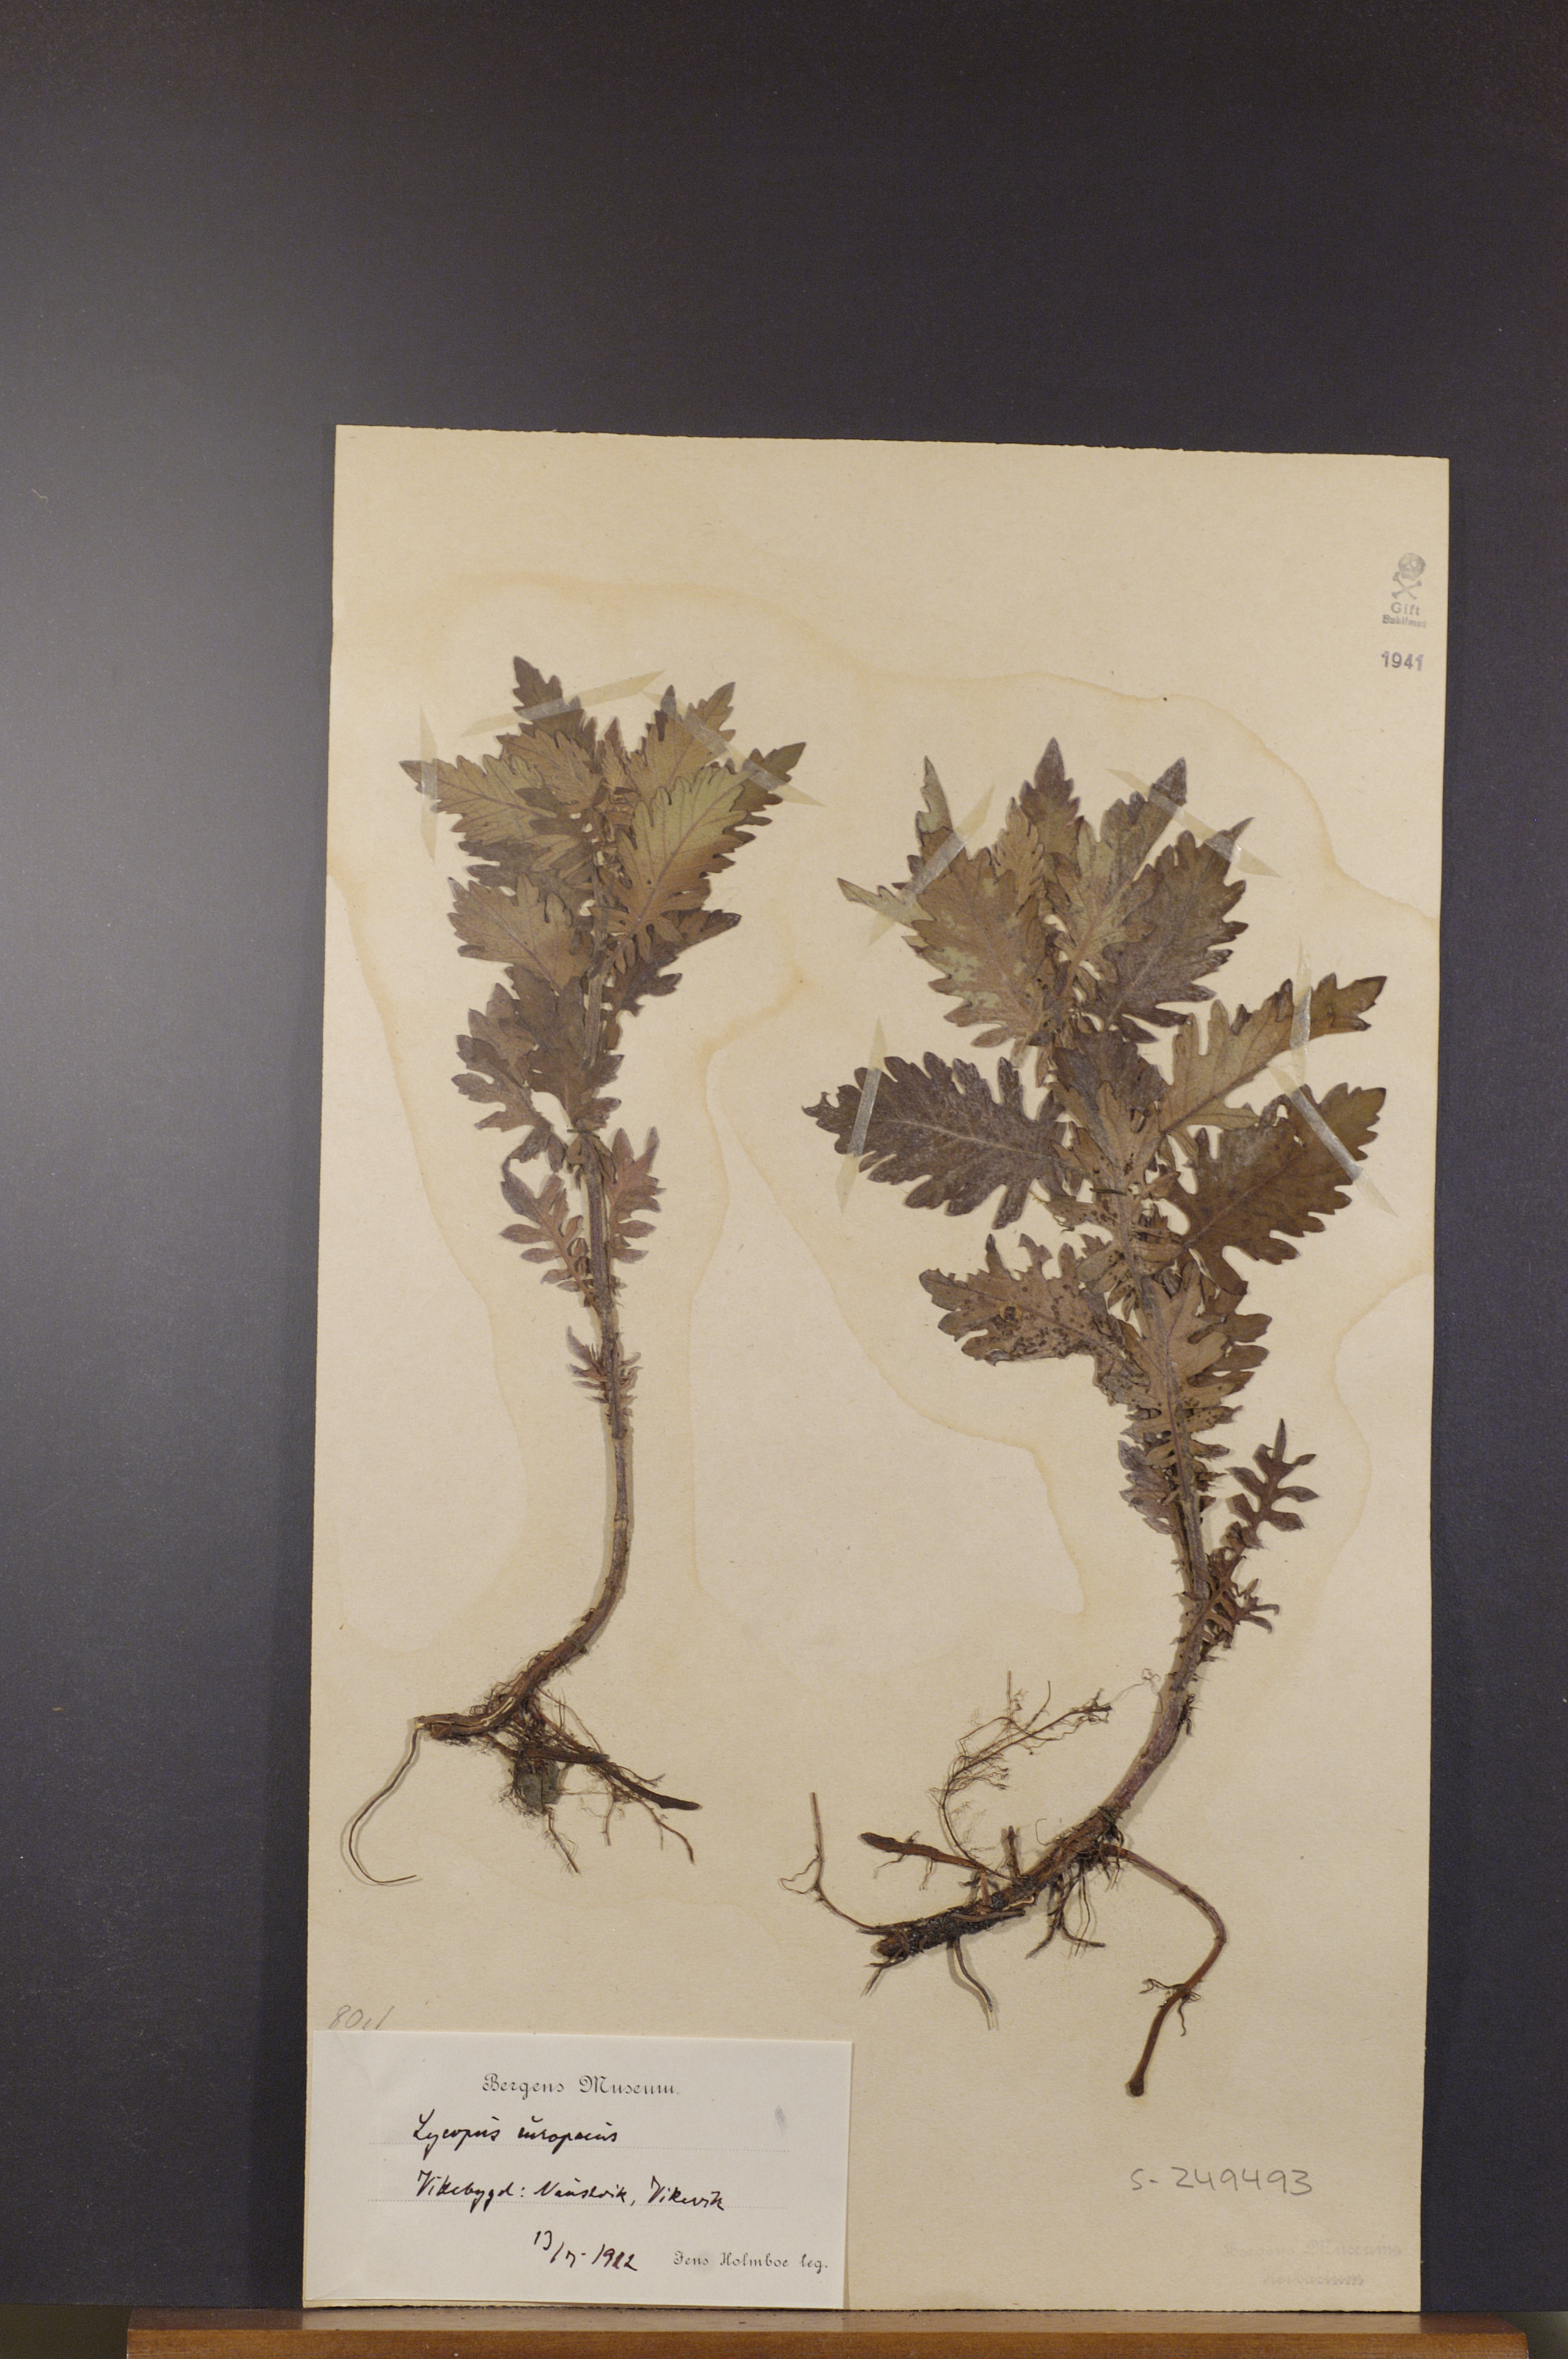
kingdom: Plantae
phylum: Tracheophyta
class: Magnoliopsida
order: Lamiales
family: Lamiaceae
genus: Lycopus
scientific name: Lycopus europaeus
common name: European bugleweed
